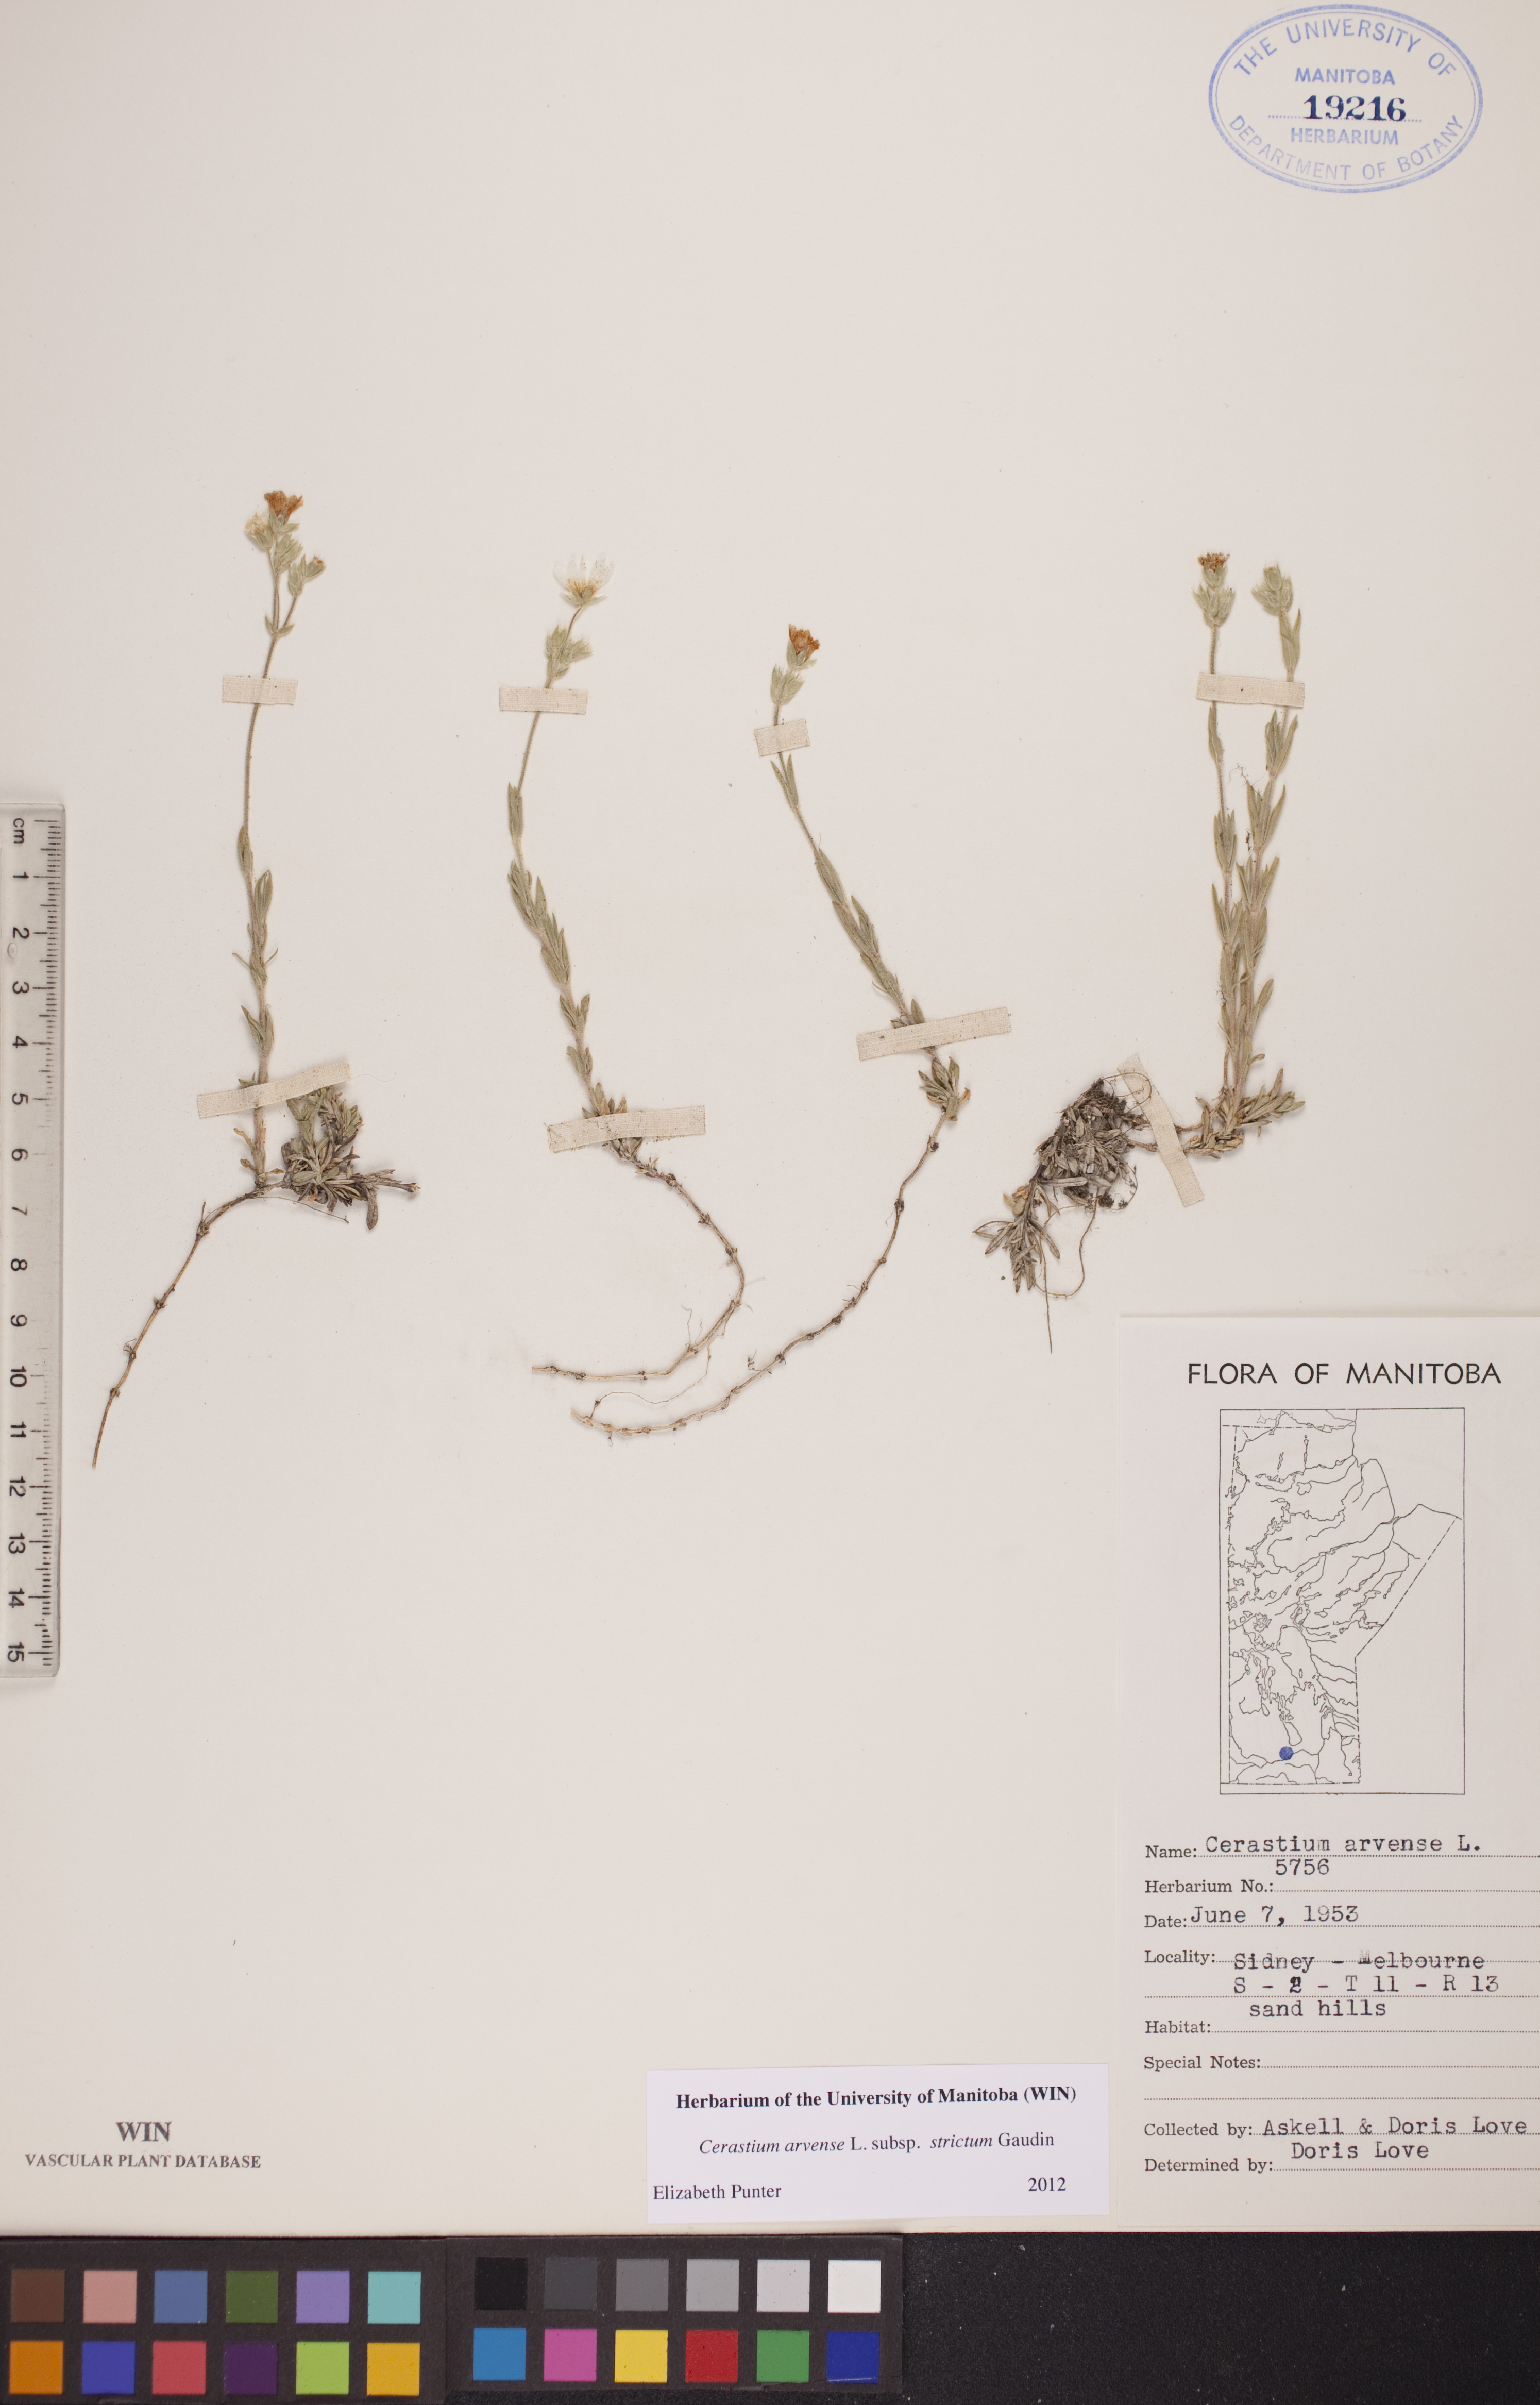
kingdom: Plantae
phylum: Tracheophyta
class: Magnoliopsida
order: Caryophyllales
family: Caryophyllaceae
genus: Cerastium
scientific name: Cerastium elongatum
